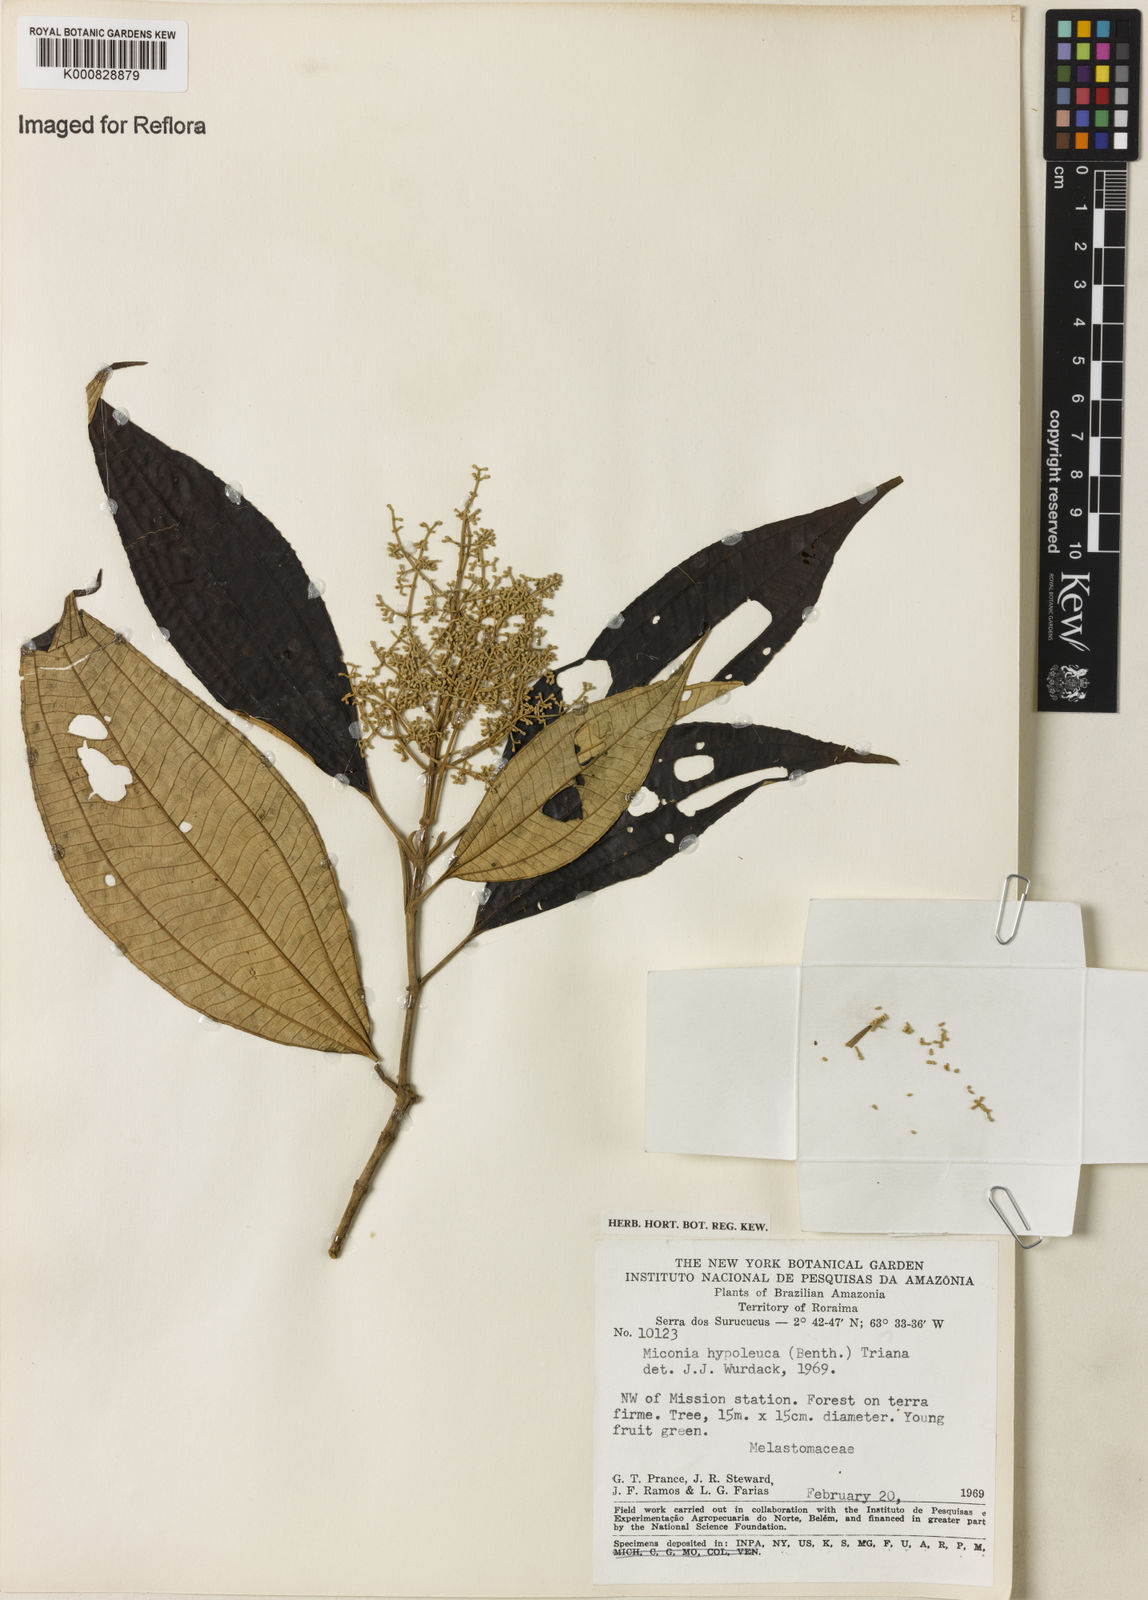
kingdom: Plantae
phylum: Tracheophyta
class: Magnoliopsida
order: Myrtales
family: Melastomataceae
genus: Miconia
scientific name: Miconia hypoleuca
